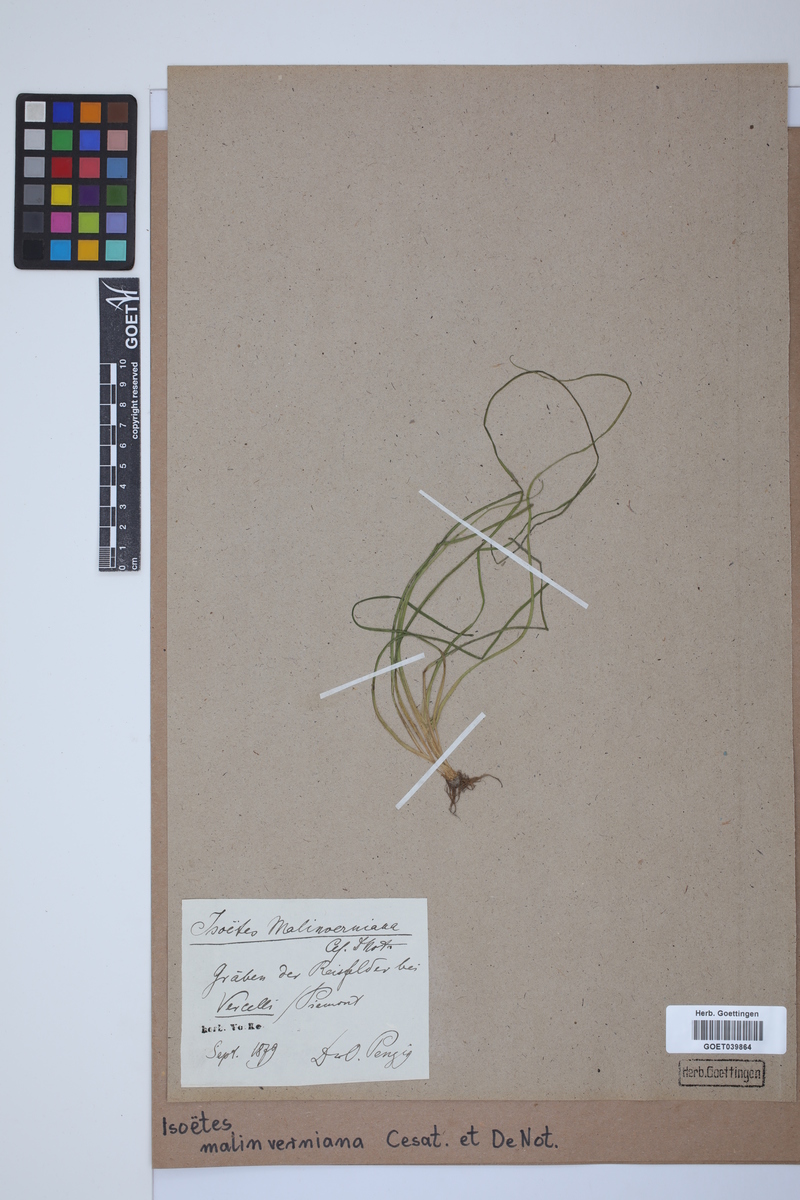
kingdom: Plantae
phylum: Tracheophyta
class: Lycopodiopsida
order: Isoetales
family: Isoetaceae
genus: Isoetes
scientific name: Isoetes malinverniana
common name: Piedmont quillwort
